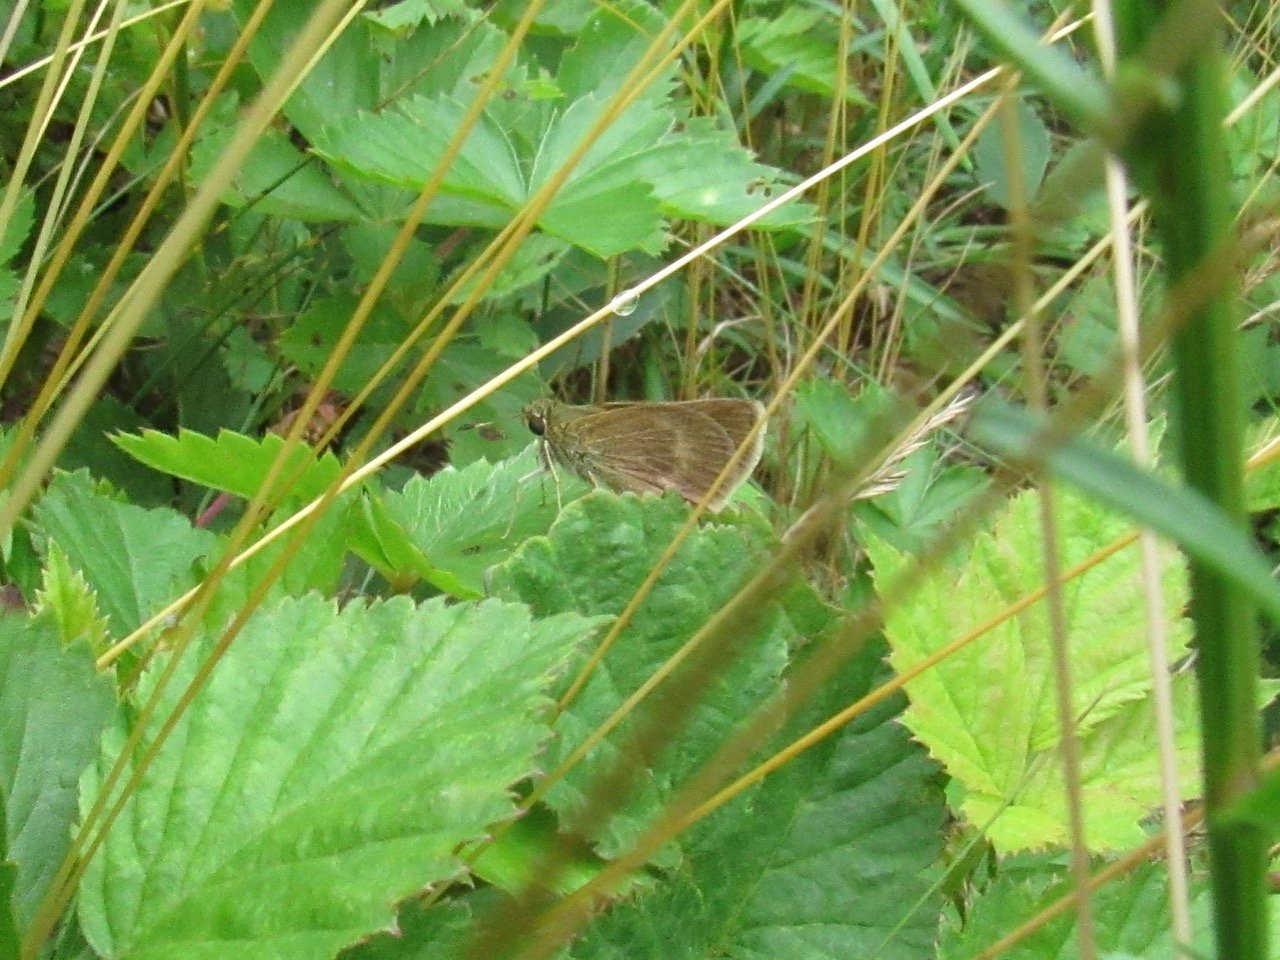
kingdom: Animalia
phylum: Arthropoda
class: Insecta
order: Lepidoptera
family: Hesperiidae
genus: Polites
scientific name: Polites egeremet
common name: Northern Broken-Dash
